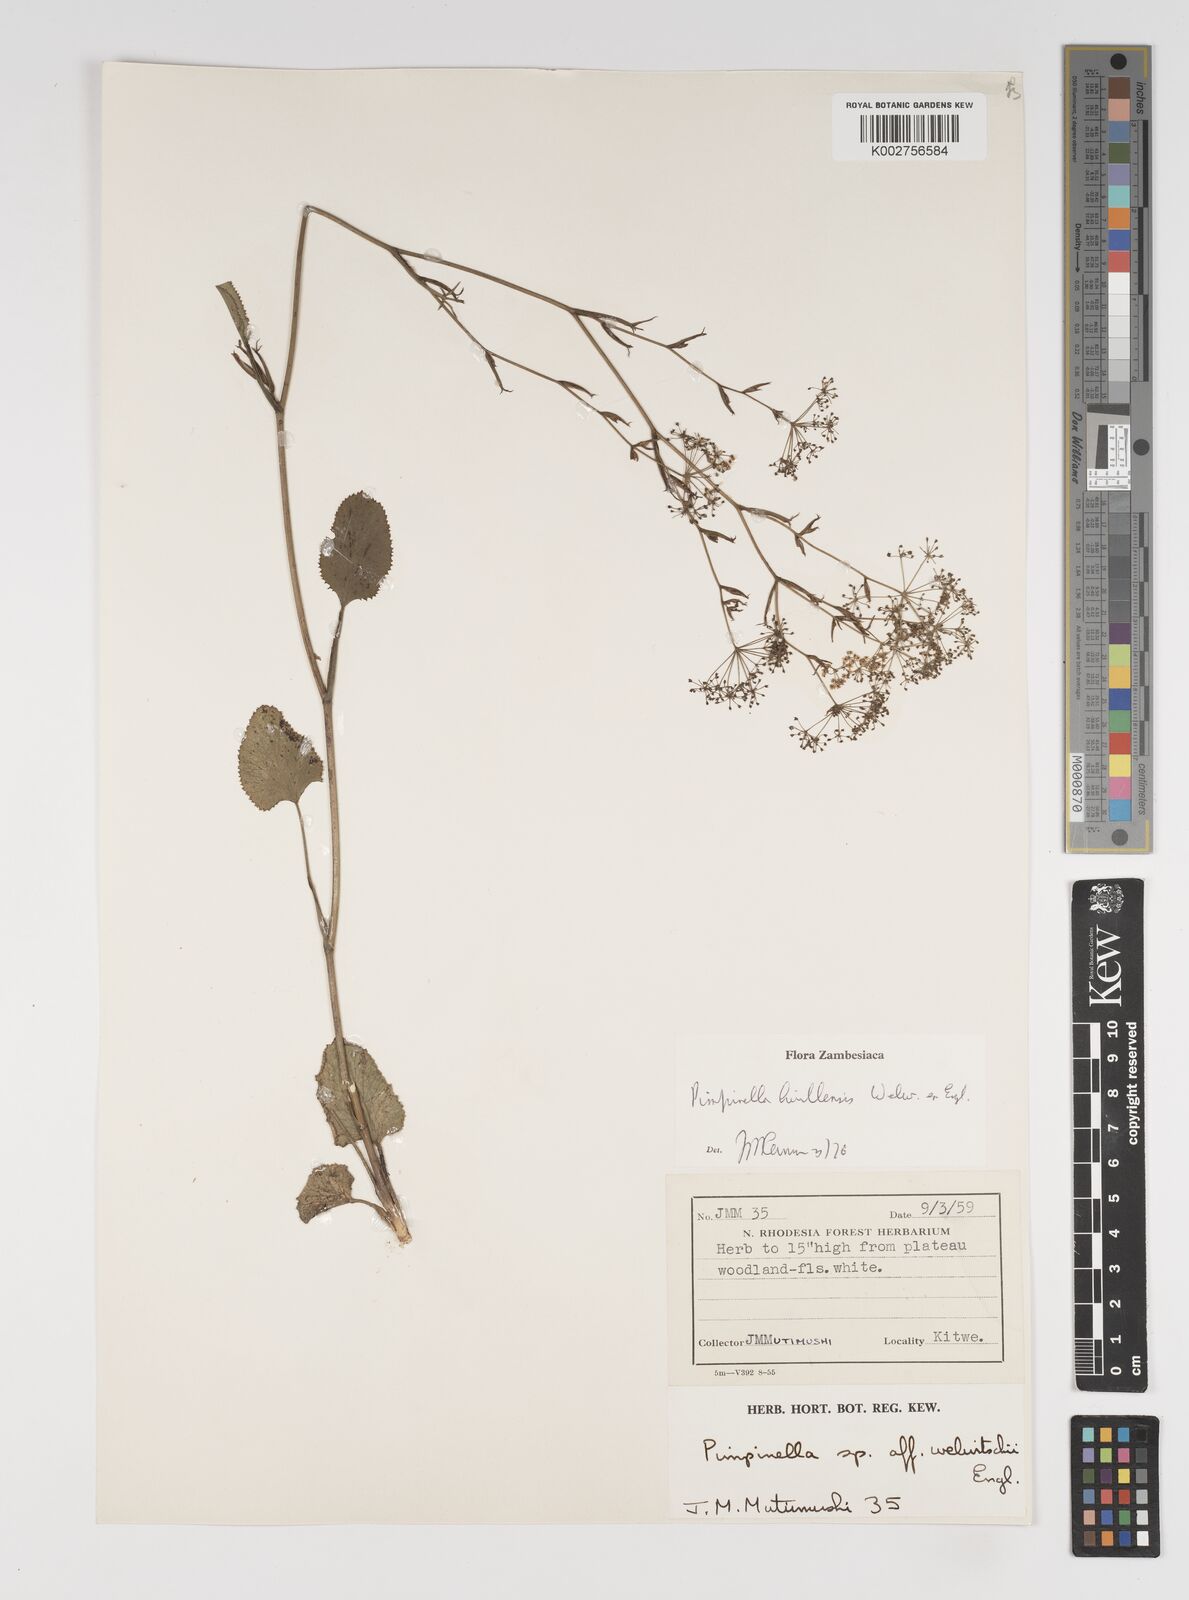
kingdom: Plantae
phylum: Tracheophyta
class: Magnoliopsida
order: Apiales
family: Apiaceae
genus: Pimpinella
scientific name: Pimpinella huillensis
